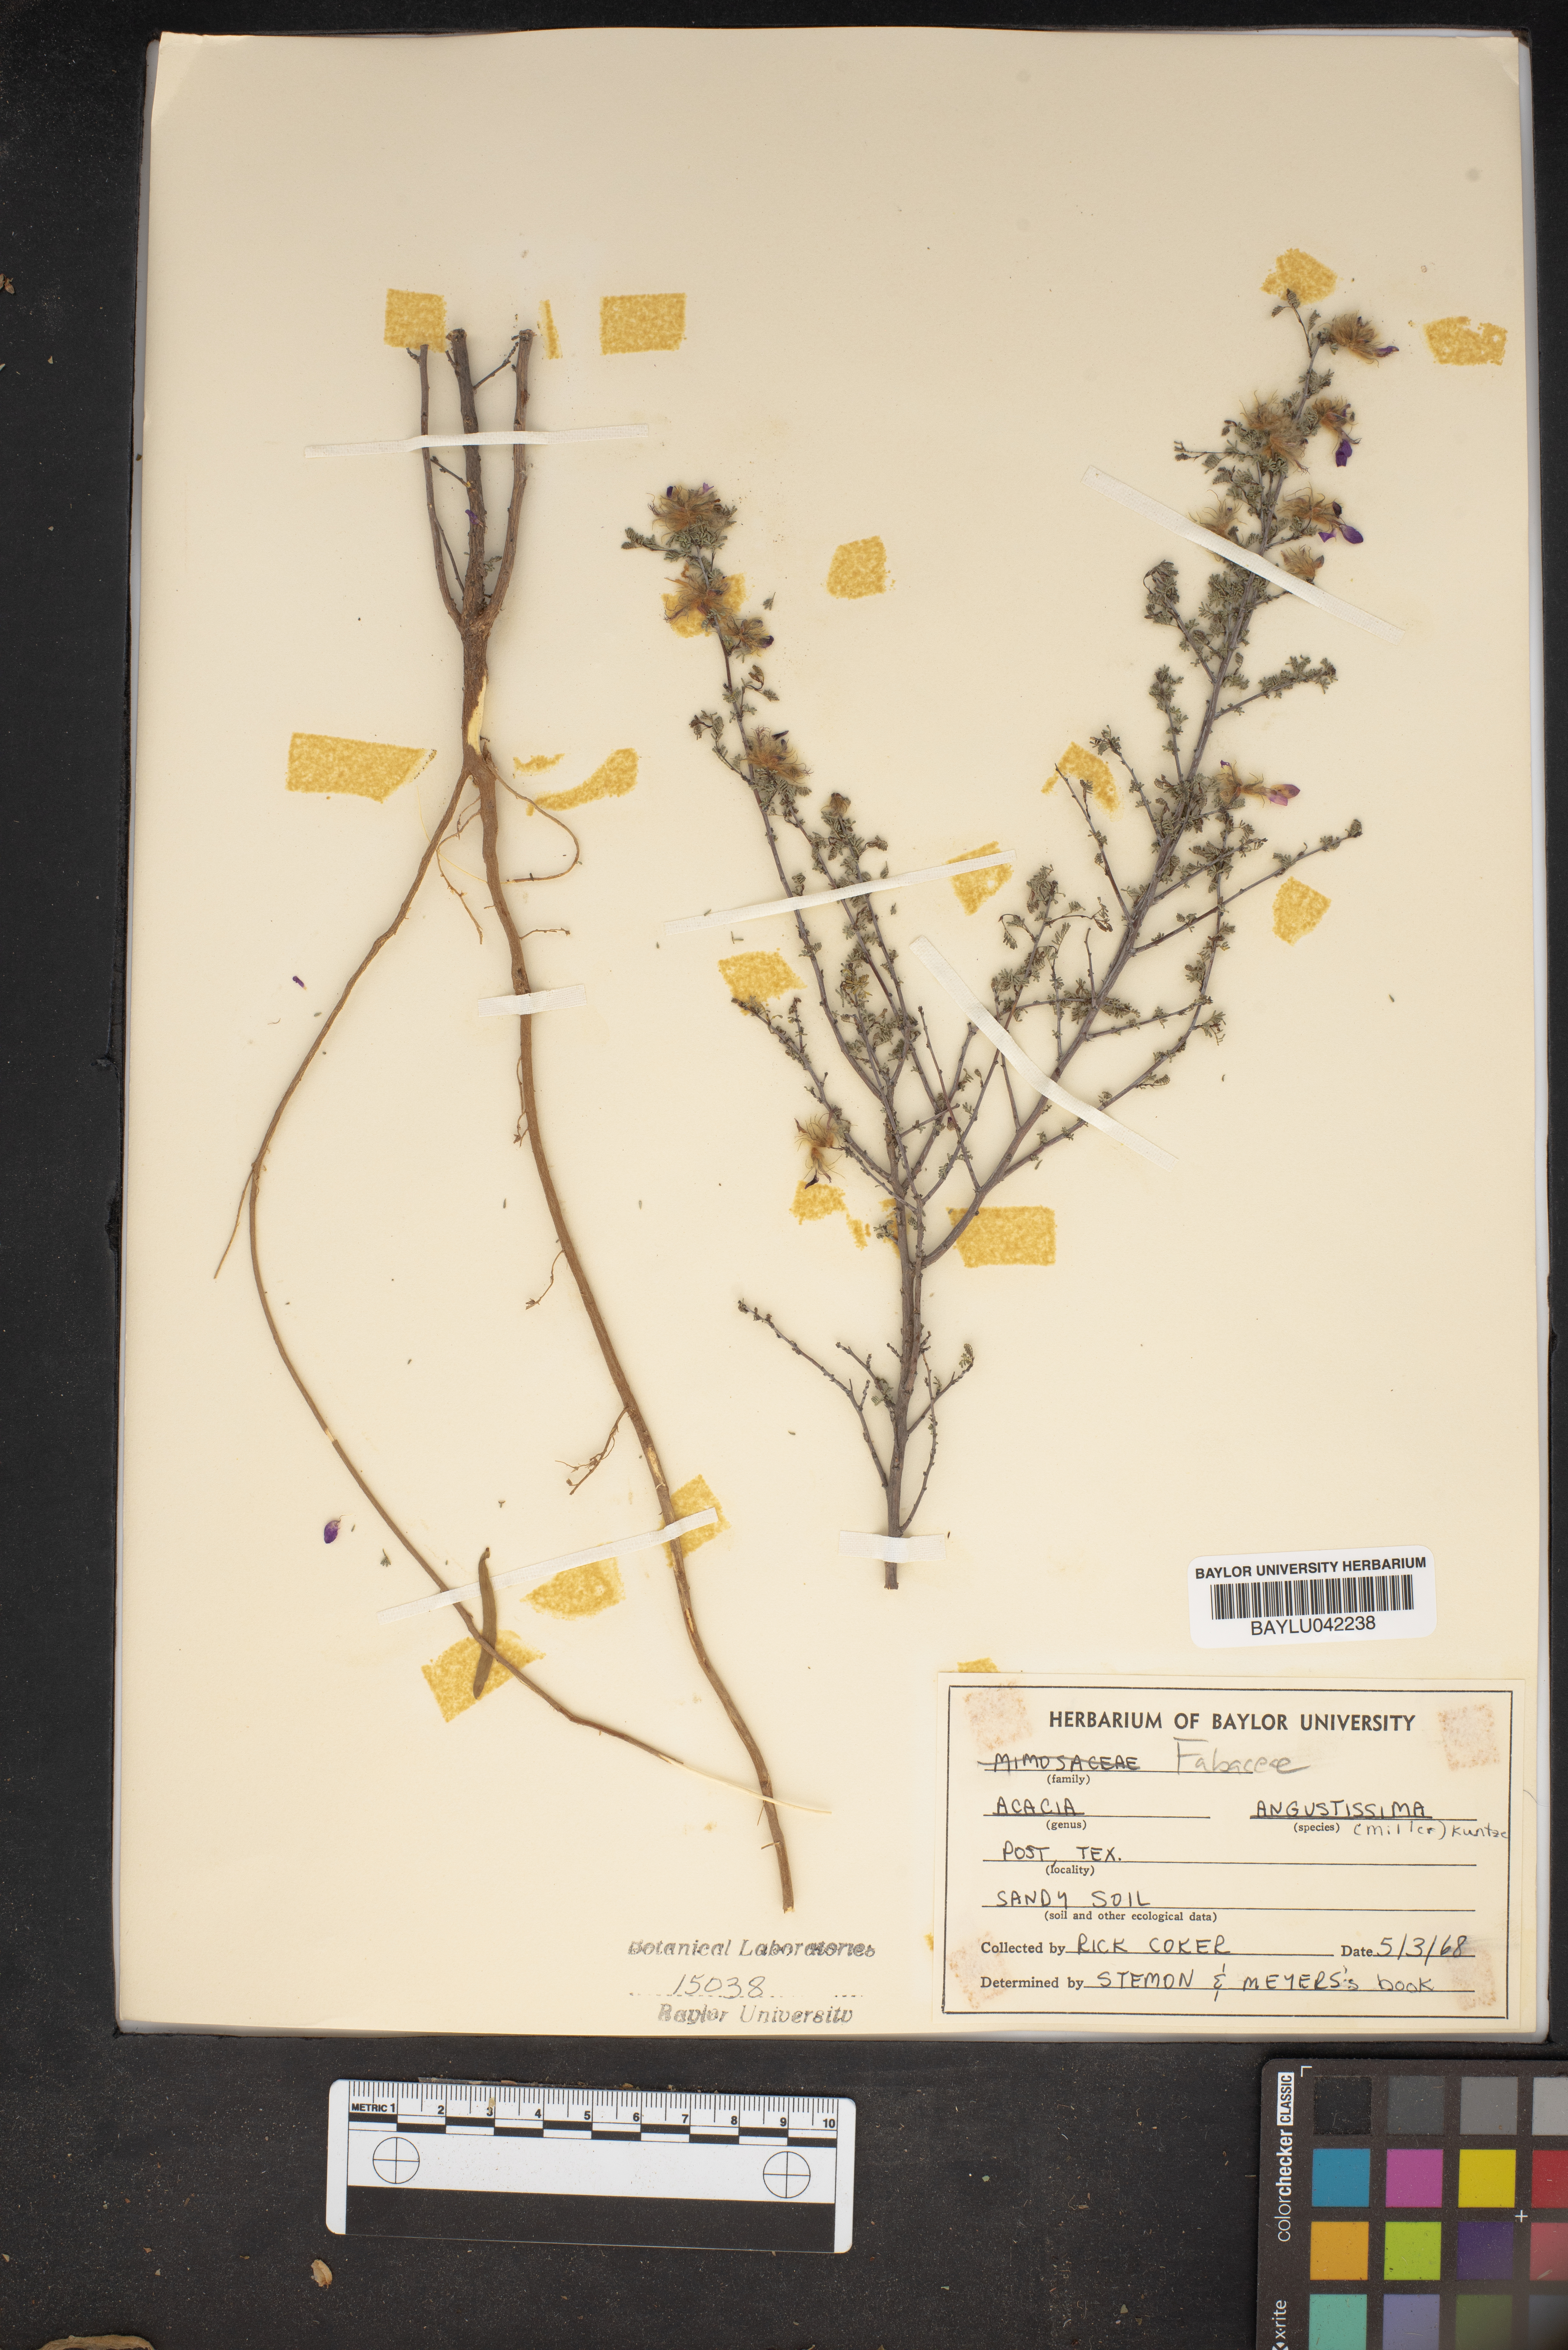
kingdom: Plantae
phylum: Tracheophyta
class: Magnoliopsida
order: Fabales
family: Fabaceae
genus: Acaciella
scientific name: Acaciella angustissima
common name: Prairie acacia
